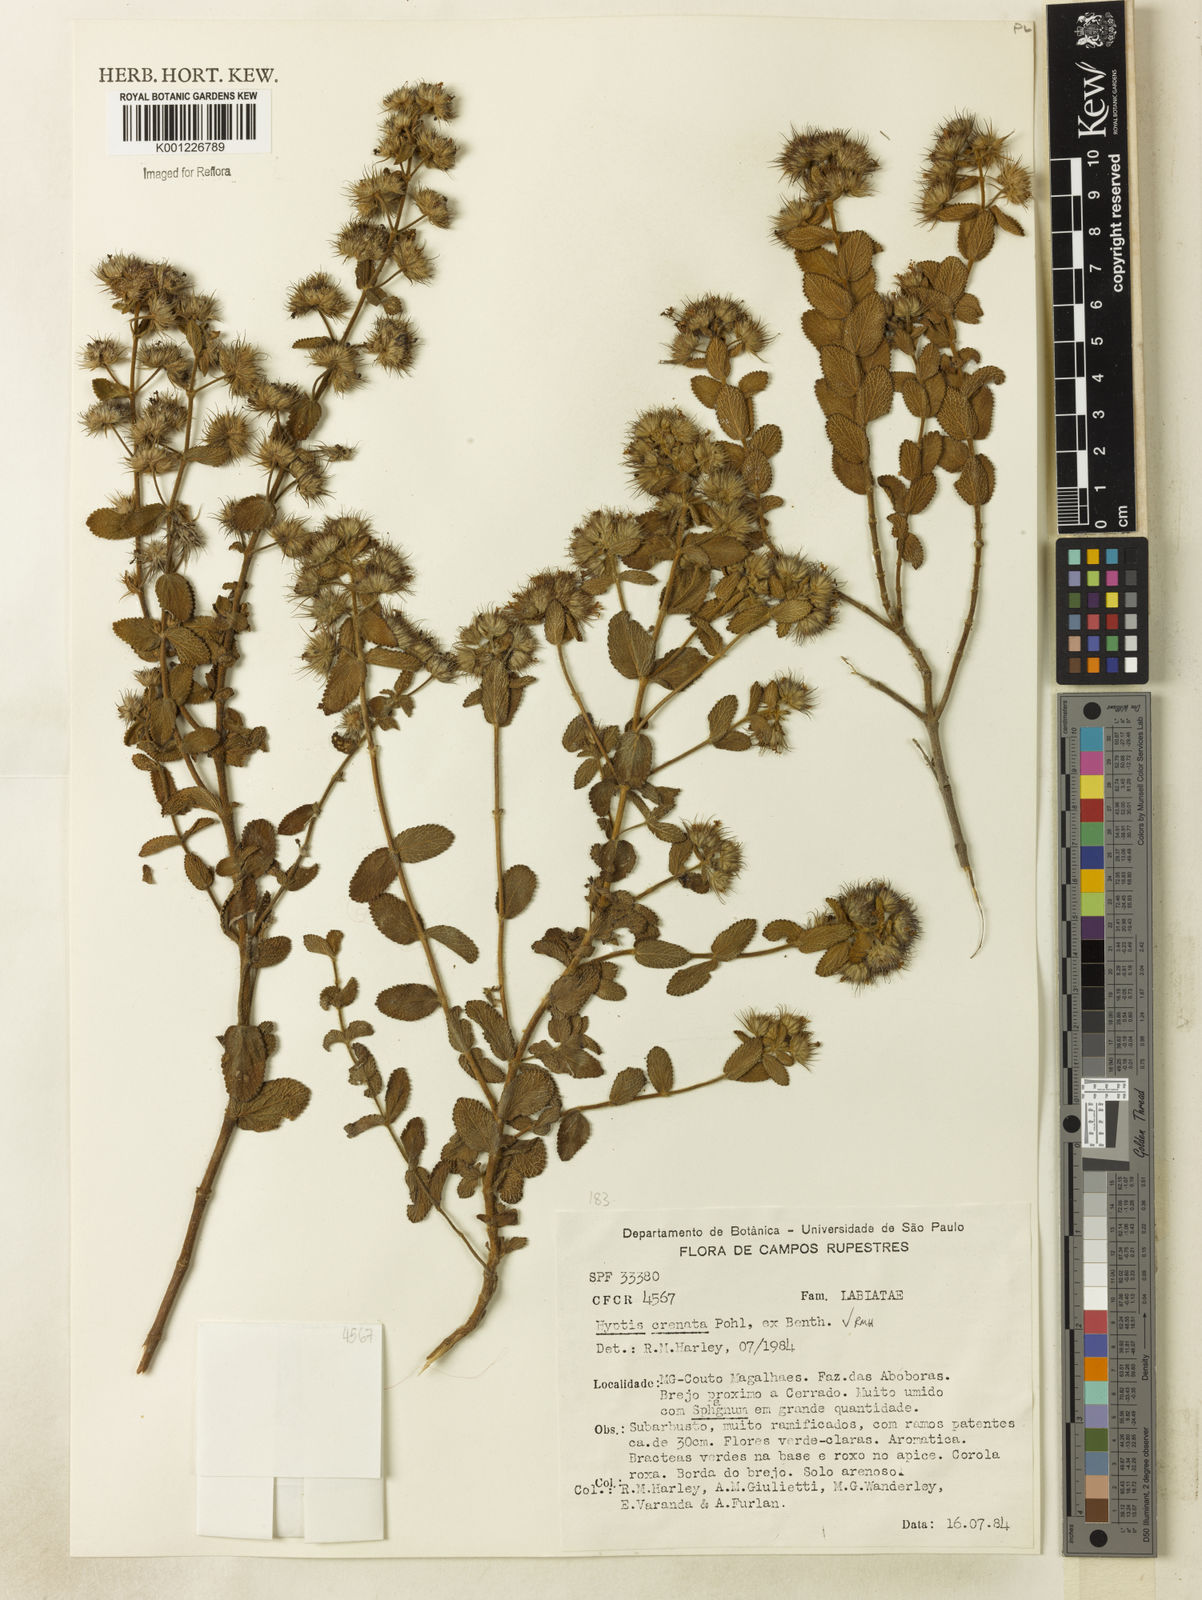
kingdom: Plantae
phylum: Tracheophyta
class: Magnoliopsida
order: Lamiales
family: Lamiaceae
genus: Hyptis
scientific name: Hyptis crenata
